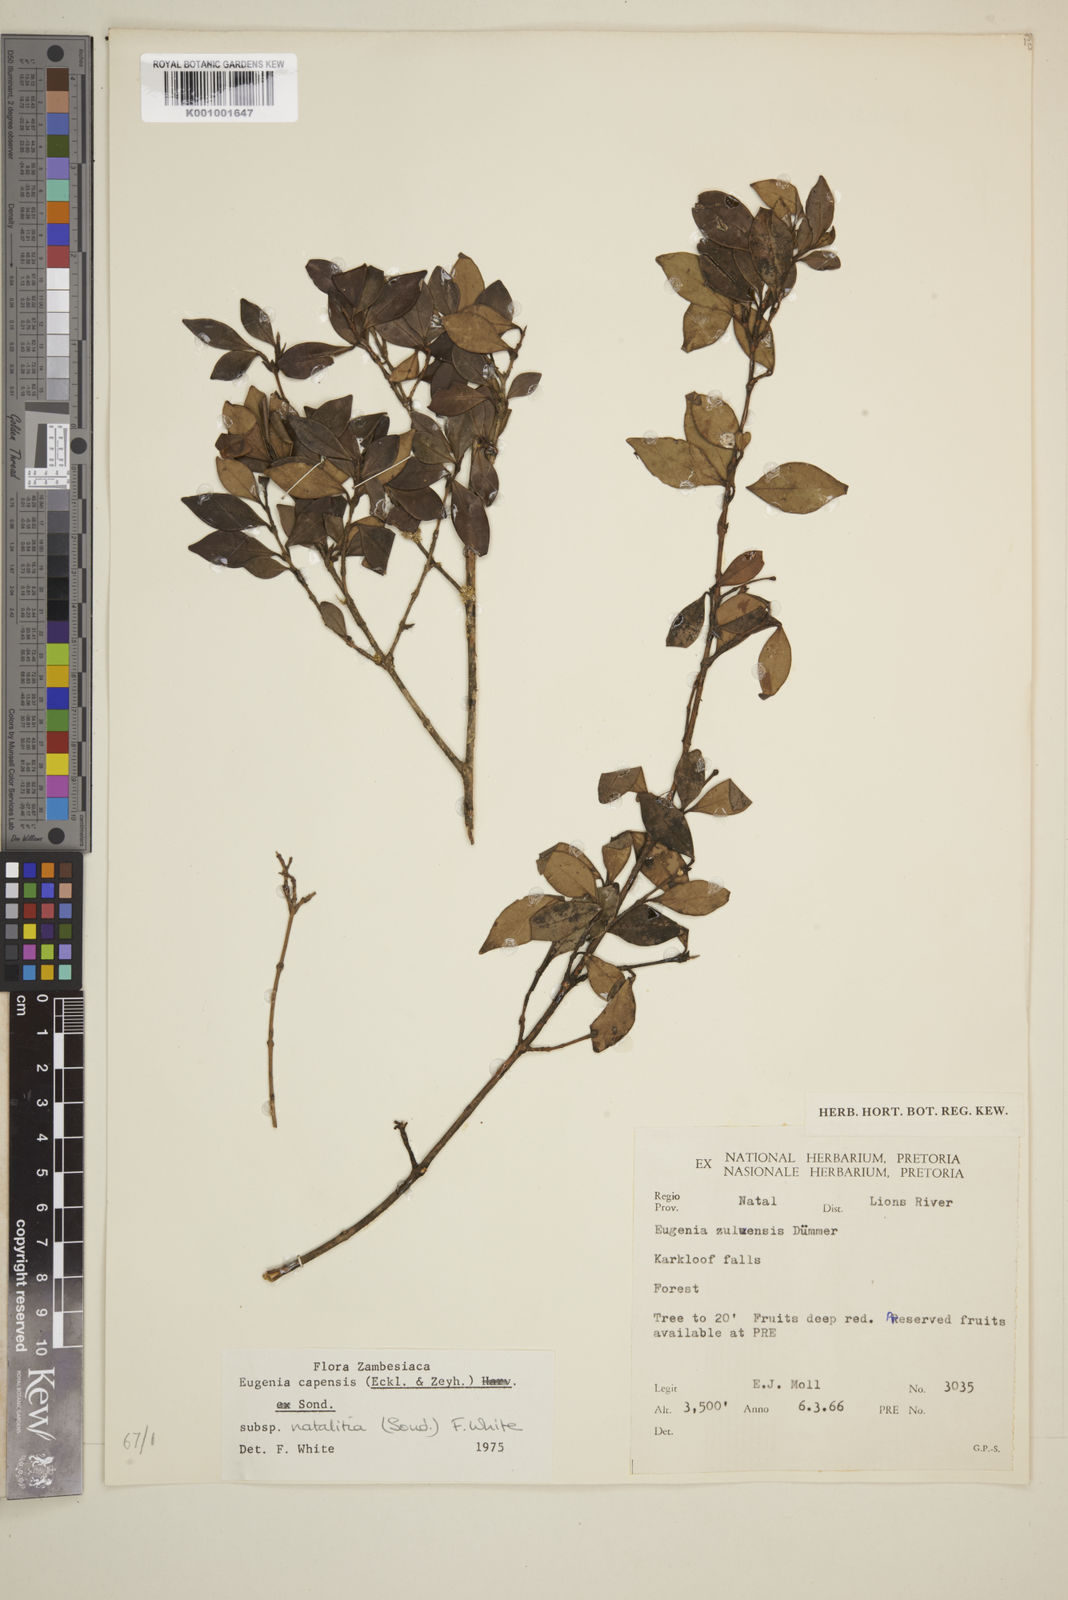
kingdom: Plantae
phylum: Tracheophyta
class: Magnoliopsida
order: Myrtales
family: Myrtaceae
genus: Eugenia
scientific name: Eugenia natalitia
